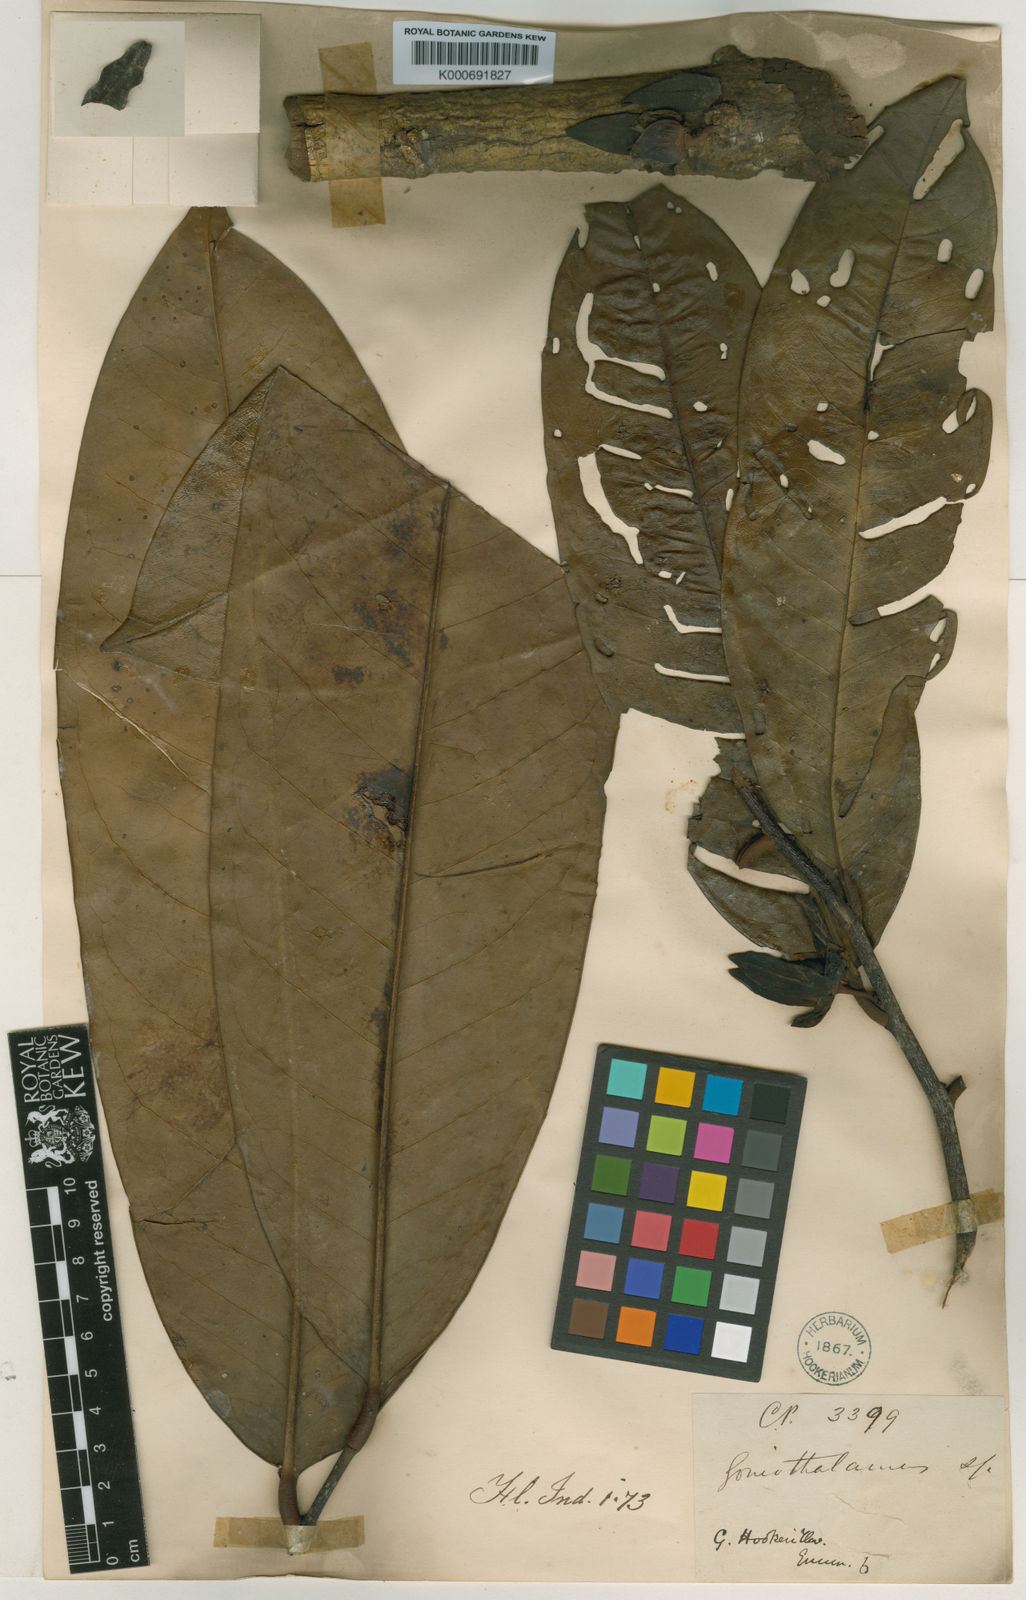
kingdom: Plantae
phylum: Tracheophyta
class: Magnoliopsida
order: Magnoliales
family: Annonaceae
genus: Goniothalamus
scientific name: Goniothalamus hookeri
